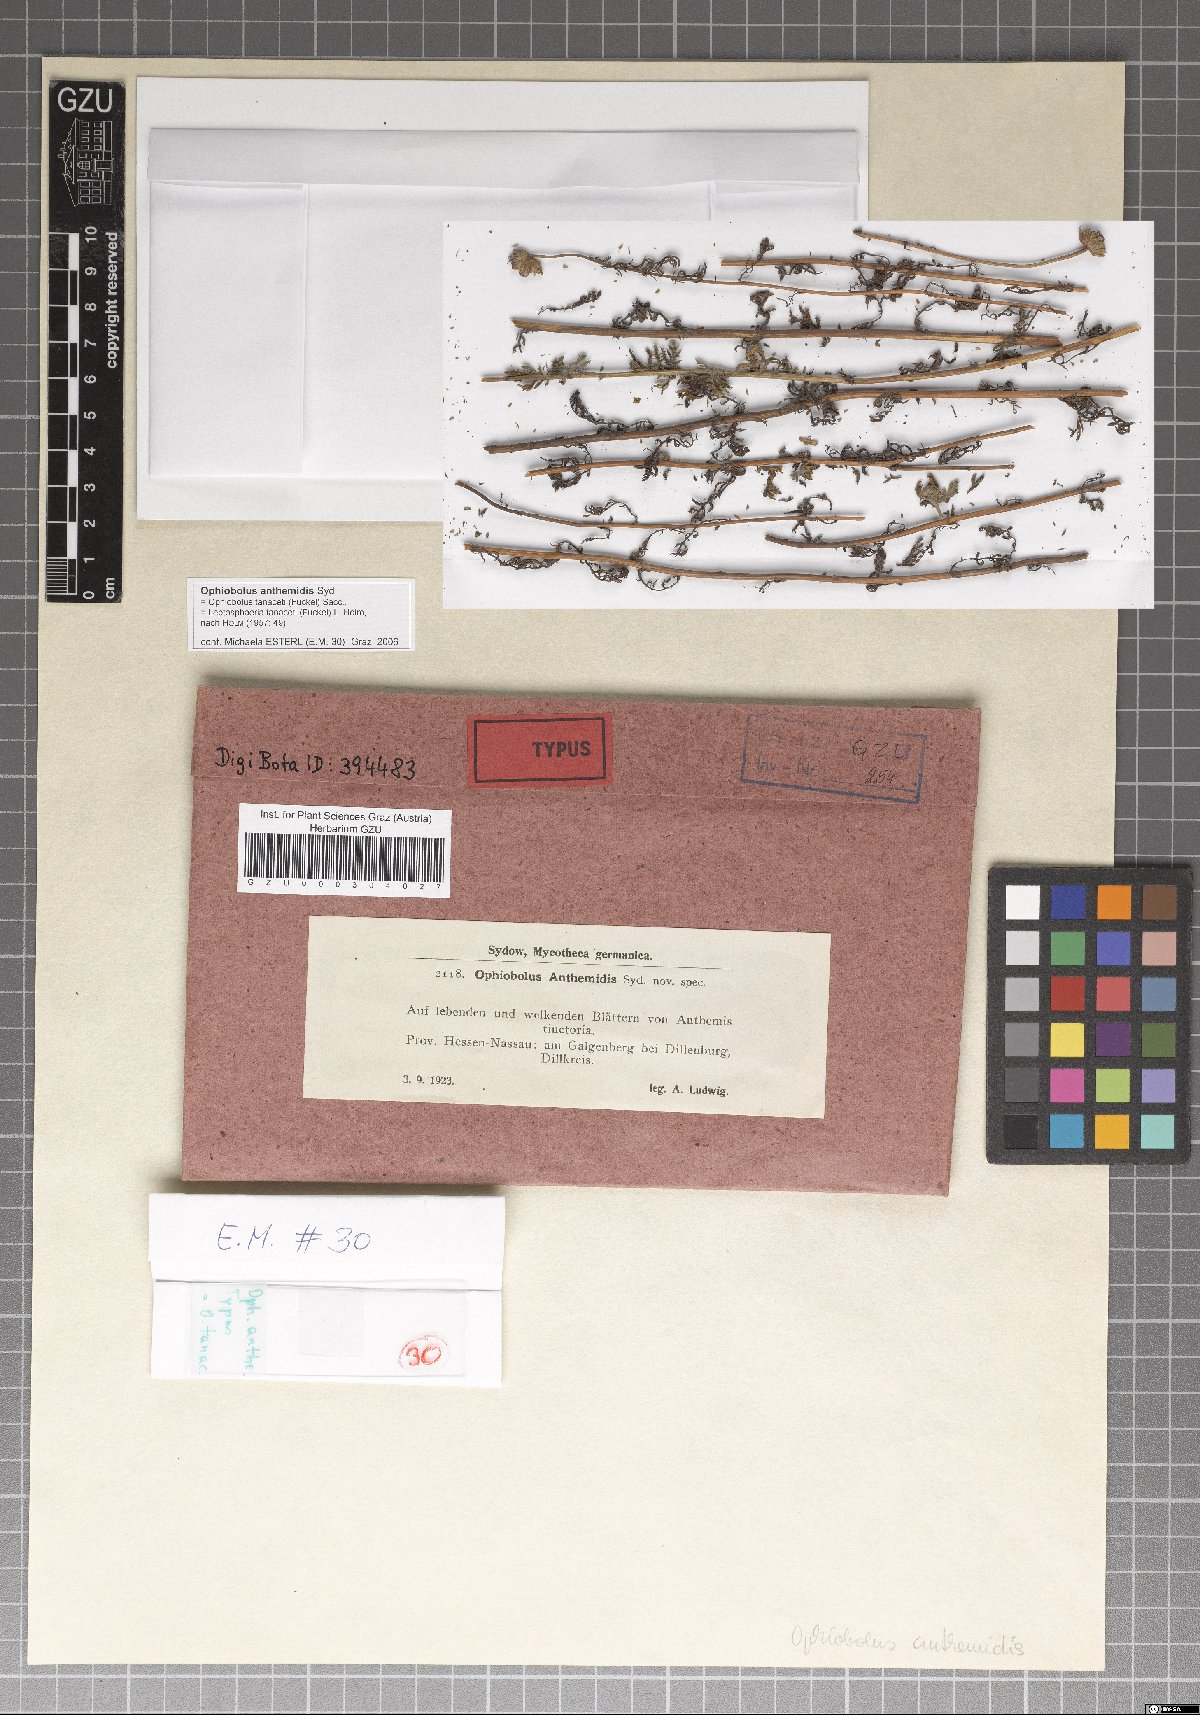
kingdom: Fungi
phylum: Ascomycota
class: Dothideomycetes
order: Pleosporales
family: Phaeosphaeriaceae
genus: Ophiobolus
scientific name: Ophiobolus anthemidis
